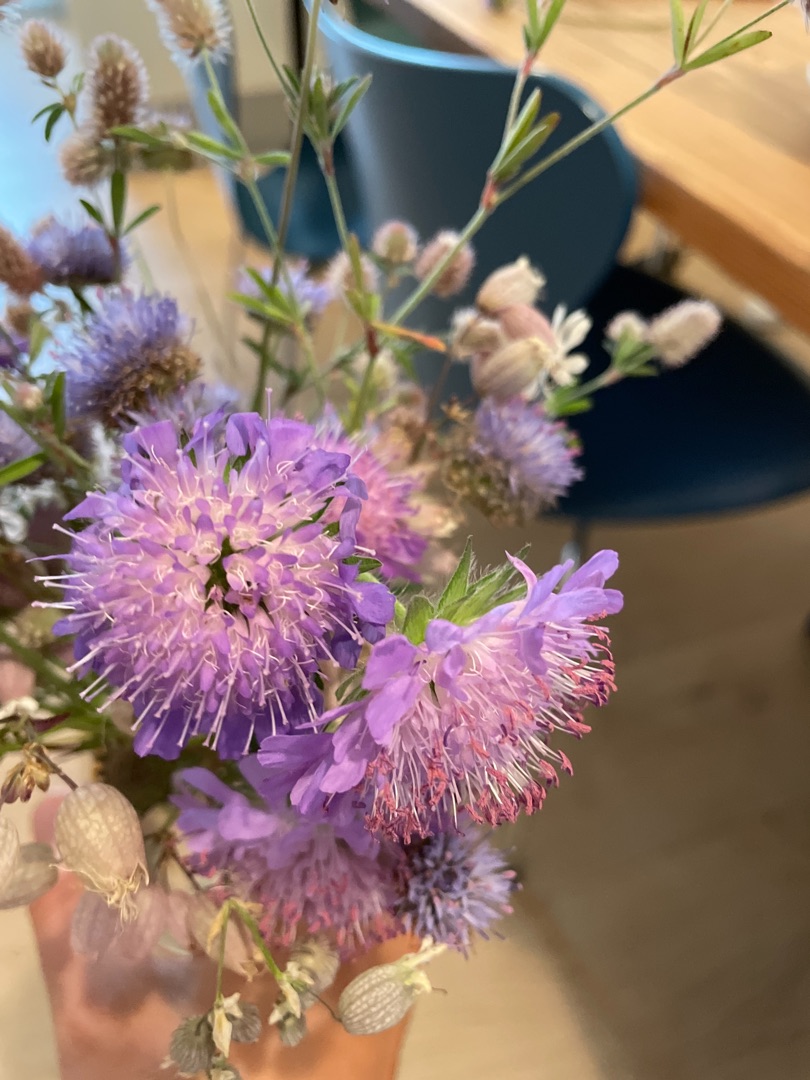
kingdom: Plantae
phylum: Tracheophyta
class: Magnoliopsida
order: Dipsacales
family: Caprifoliaceae
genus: Knautia
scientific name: Knautia arvensis
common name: Blåhat
